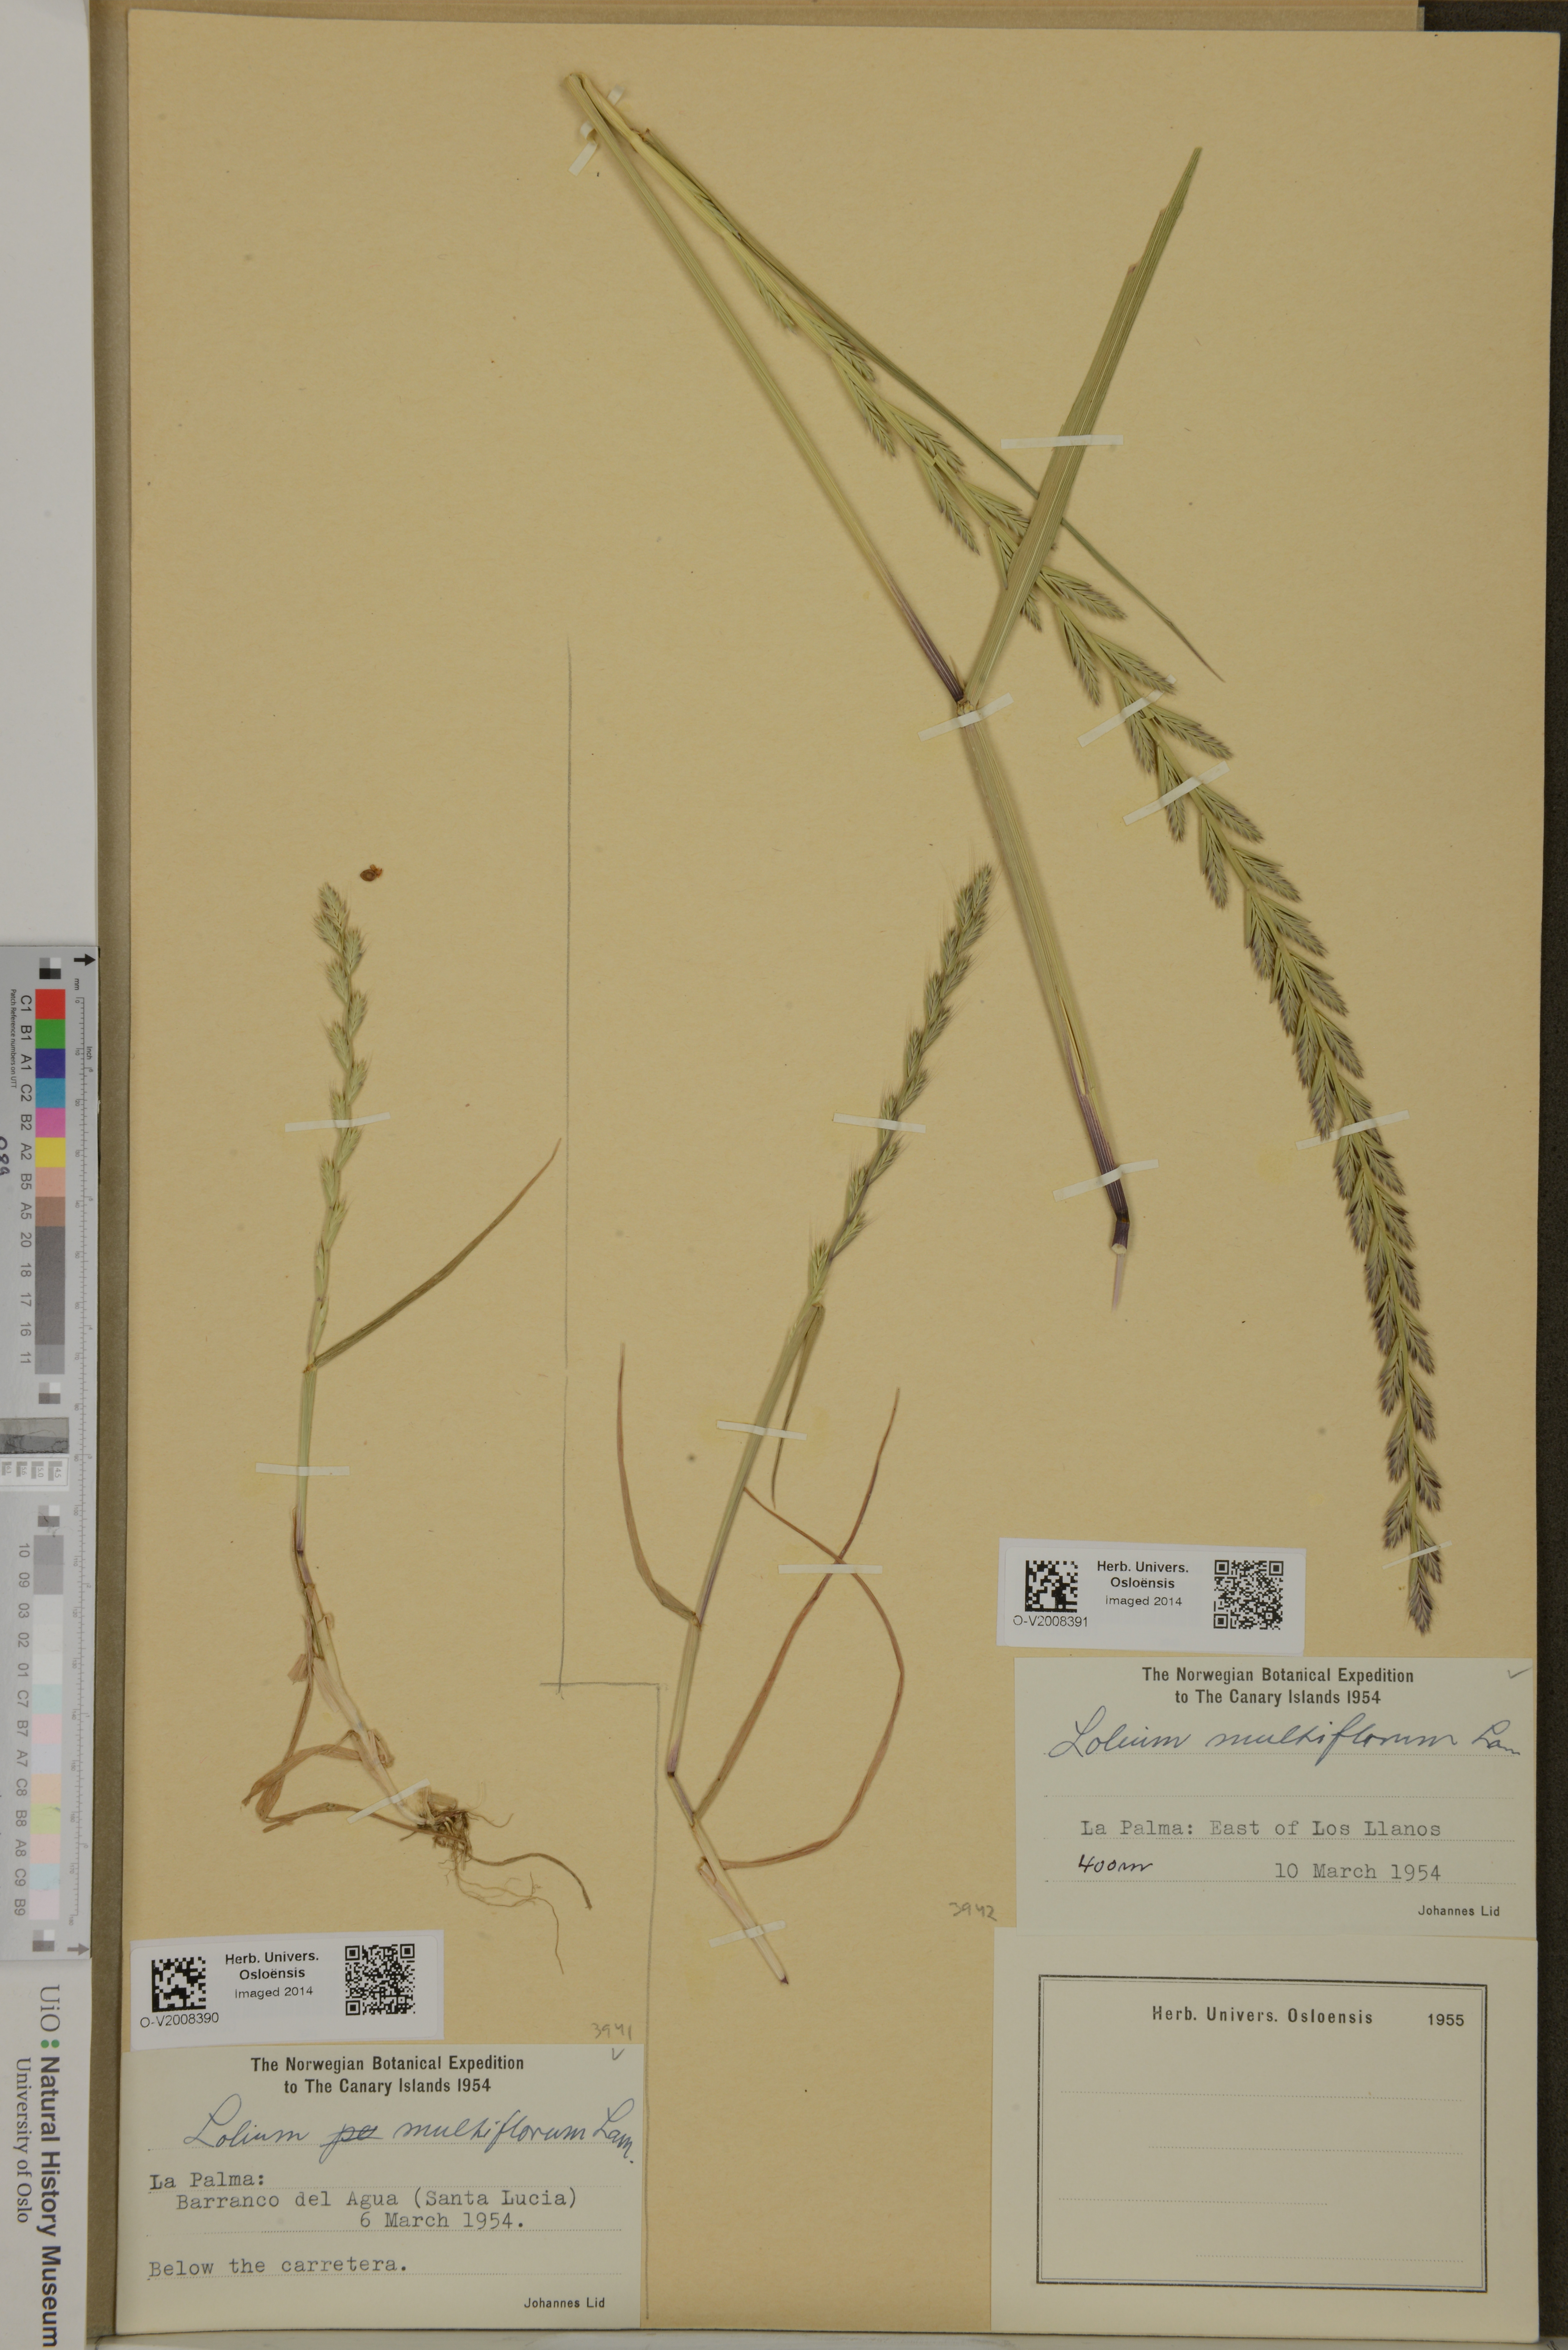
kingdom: Plantae
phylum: Tracheophyta
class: Liliopsida
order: Poales
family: Poaceae
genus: Lolium
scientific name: Lolium multiflorum
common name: Annual ryegrass
